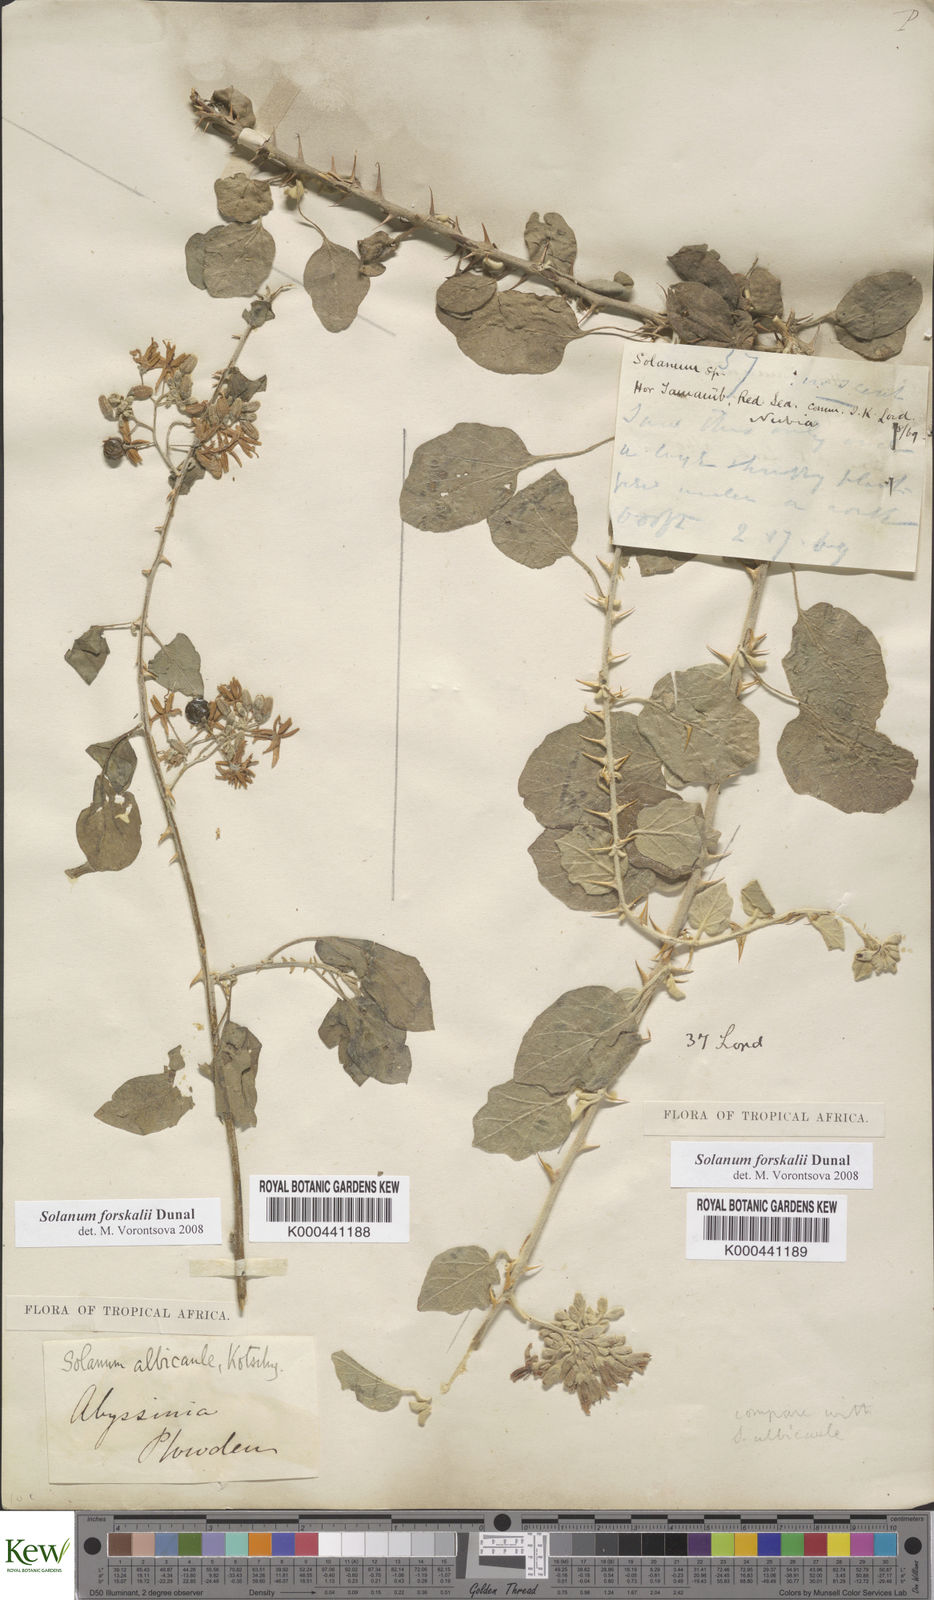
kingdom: Plantae
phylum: Tracheophyta
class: Magnoliopsida
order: Solanales
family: Solanaceae
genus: Solanum
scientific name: Solanum
